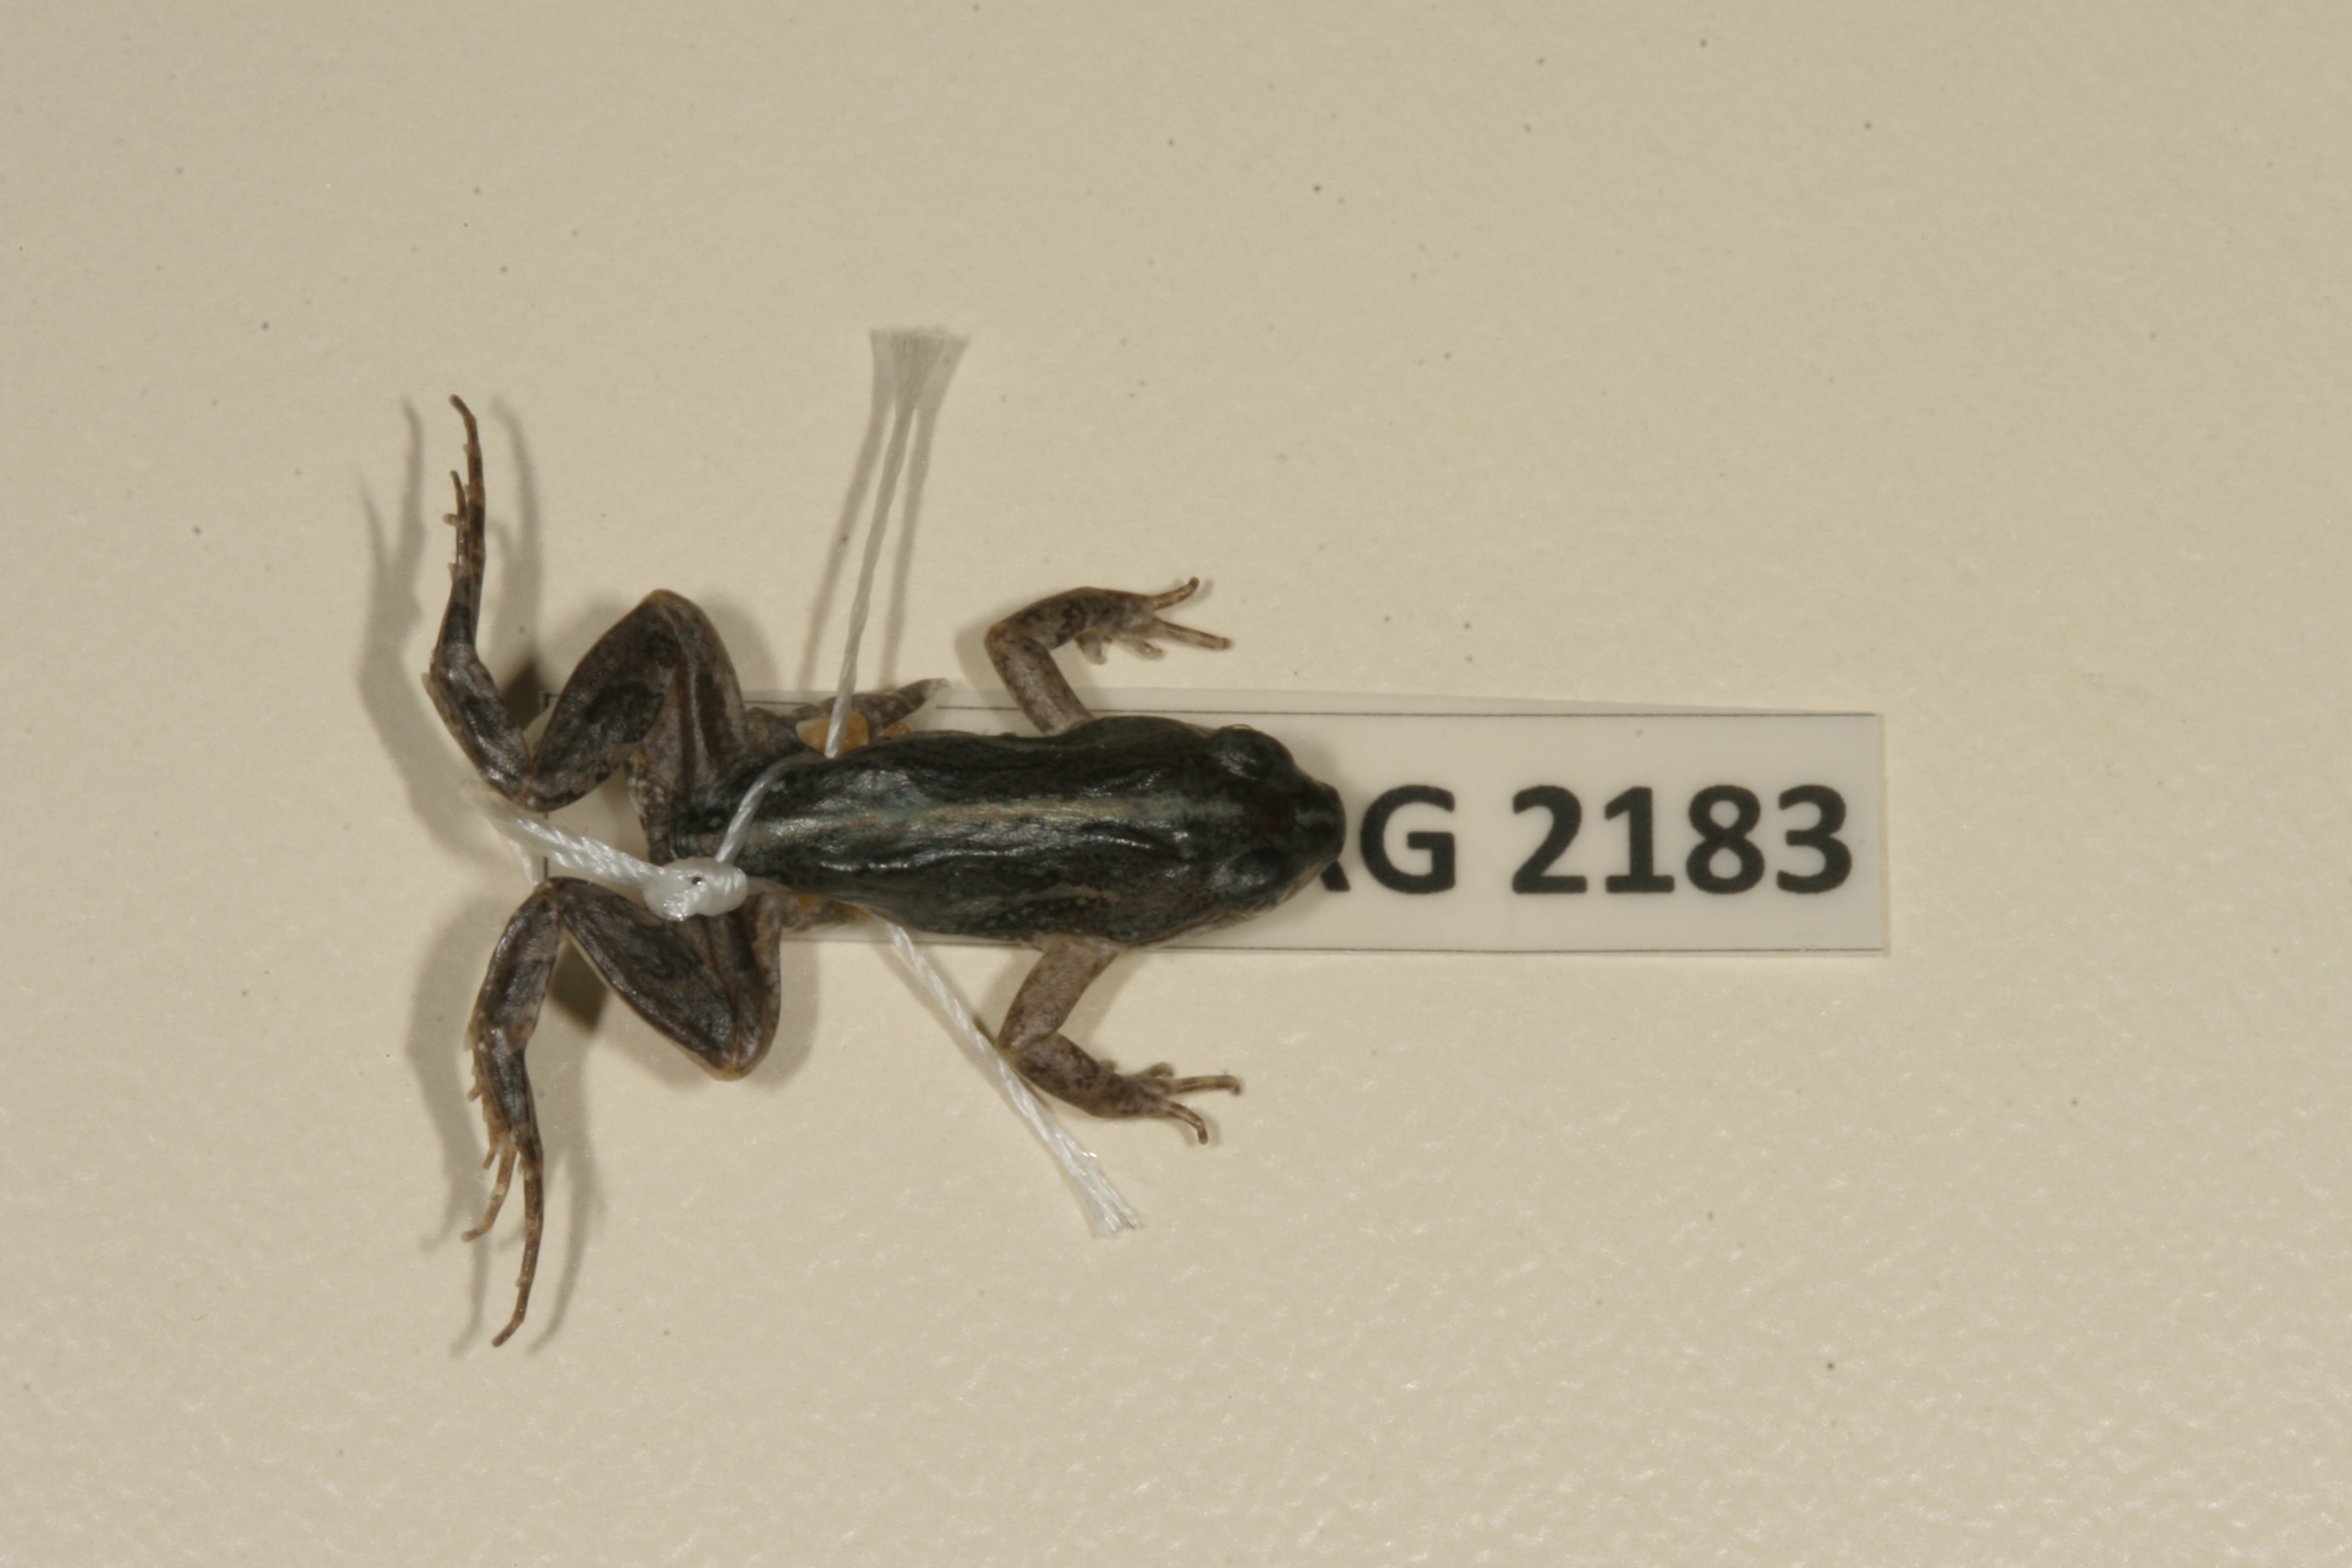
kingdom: Animalia
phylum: Chordata
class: Amphibia
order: Anura
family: Pyxicephalidae
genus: Cacosternum
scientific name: Cacosternum boettgeri
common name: Boettger's frog
